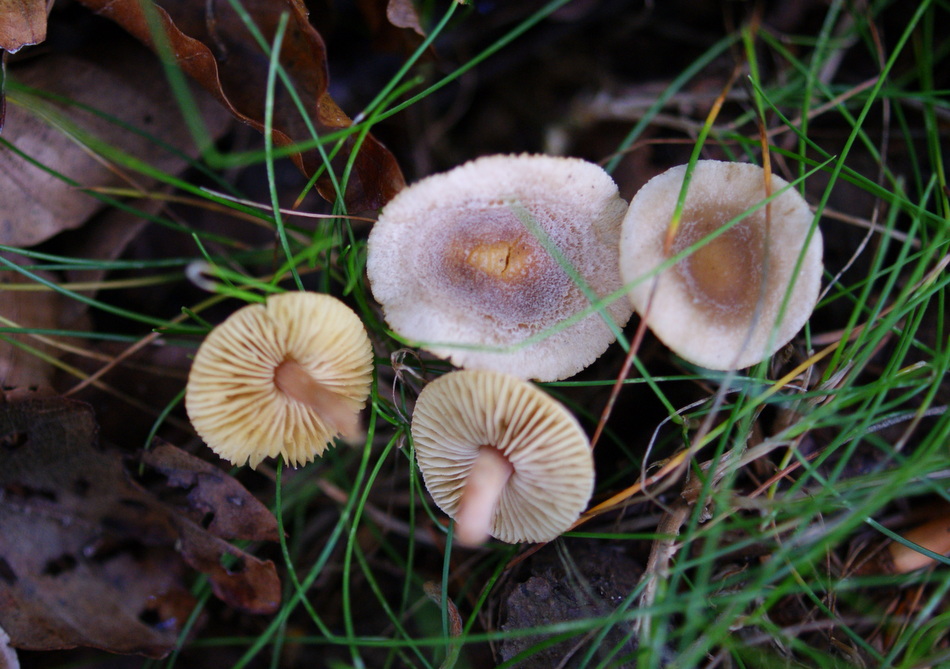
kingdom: Fungi
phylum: Basidiomycota
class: Agaricomycetes
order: Agaricales
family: Inocybaceae
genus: Inocybe
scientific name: Inocybe petiginosa
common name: liden trævlhat
